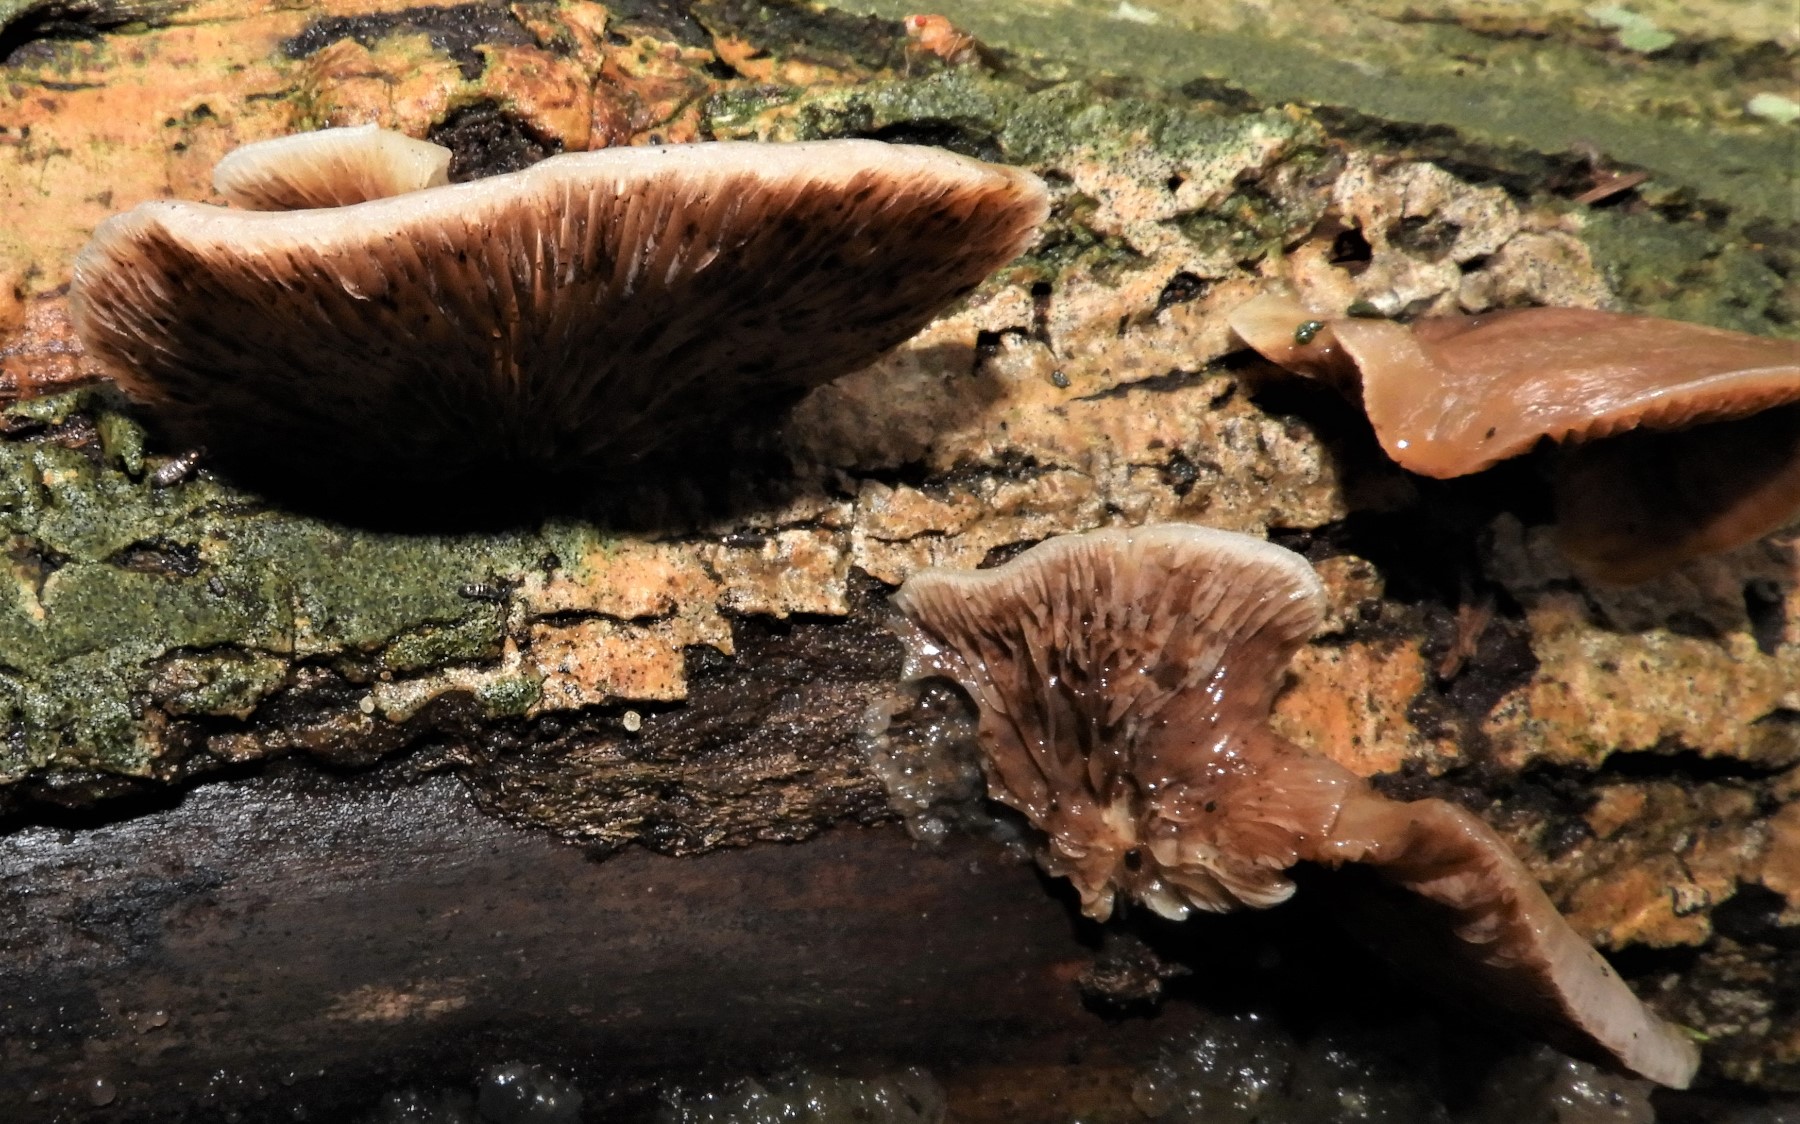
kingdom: Fungi
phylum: Basidiomycota
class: Agaricomycetes
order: Agaricales
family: Crepidotaceae
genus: Crepidotus
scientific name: Crepidotus mollis
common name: blød muslingesvamp
